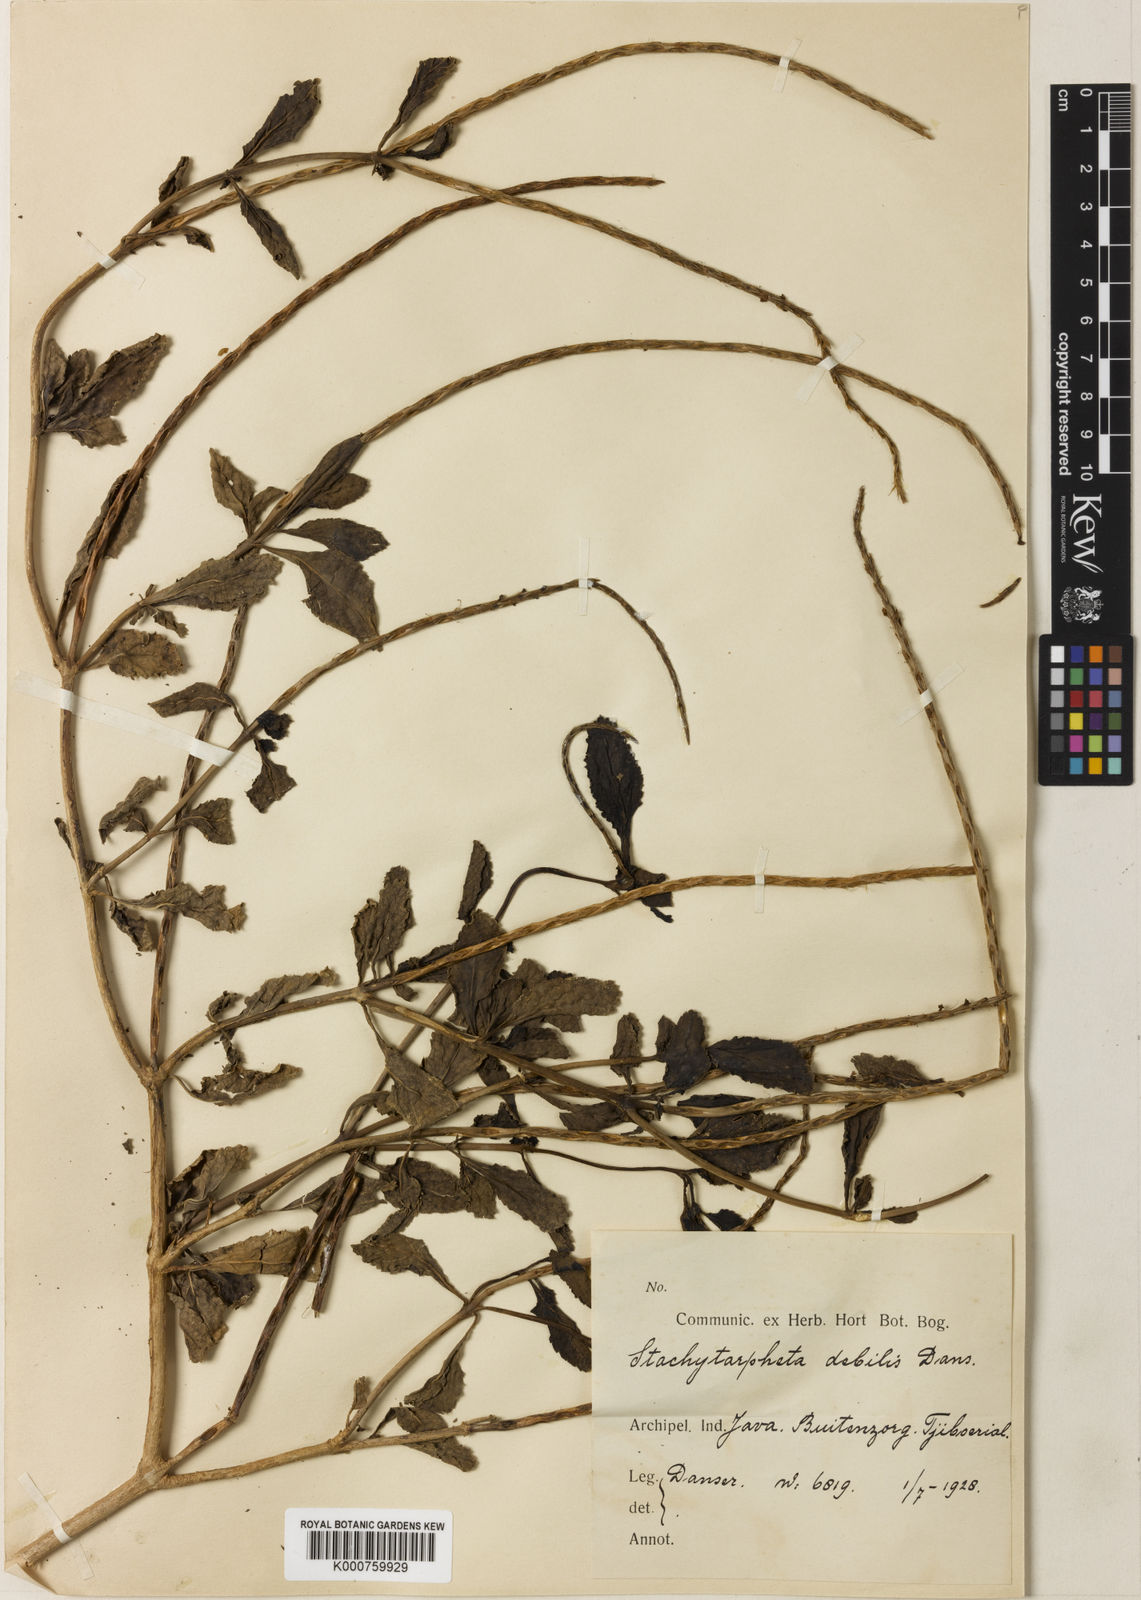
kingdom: Plantae
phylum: Tracheophyta
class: Magnoliopsida
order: Lamiales
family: Verbenaceae
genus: Stachytarpheta
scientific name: Stachytarpheta debilis
